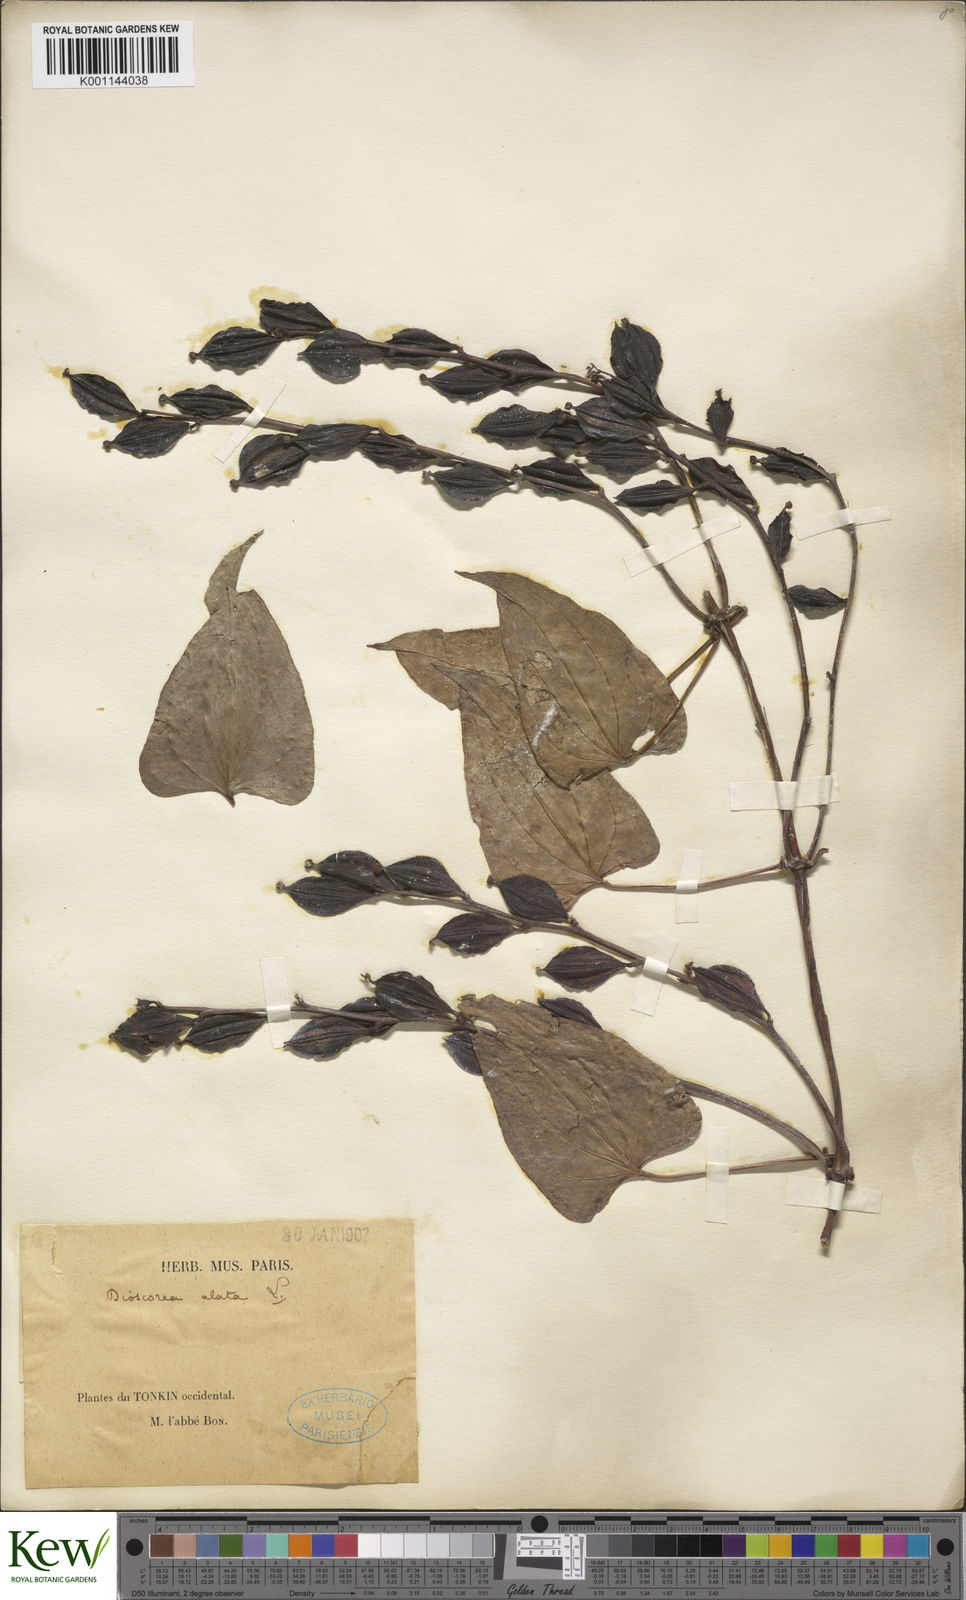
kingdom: Plantae
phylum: Tracheophyta
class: Liliopsida
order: Dioscoreales
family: Dioscoreaceae
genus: Dioscorea
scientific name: Dioscorea alata
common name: Water yam
